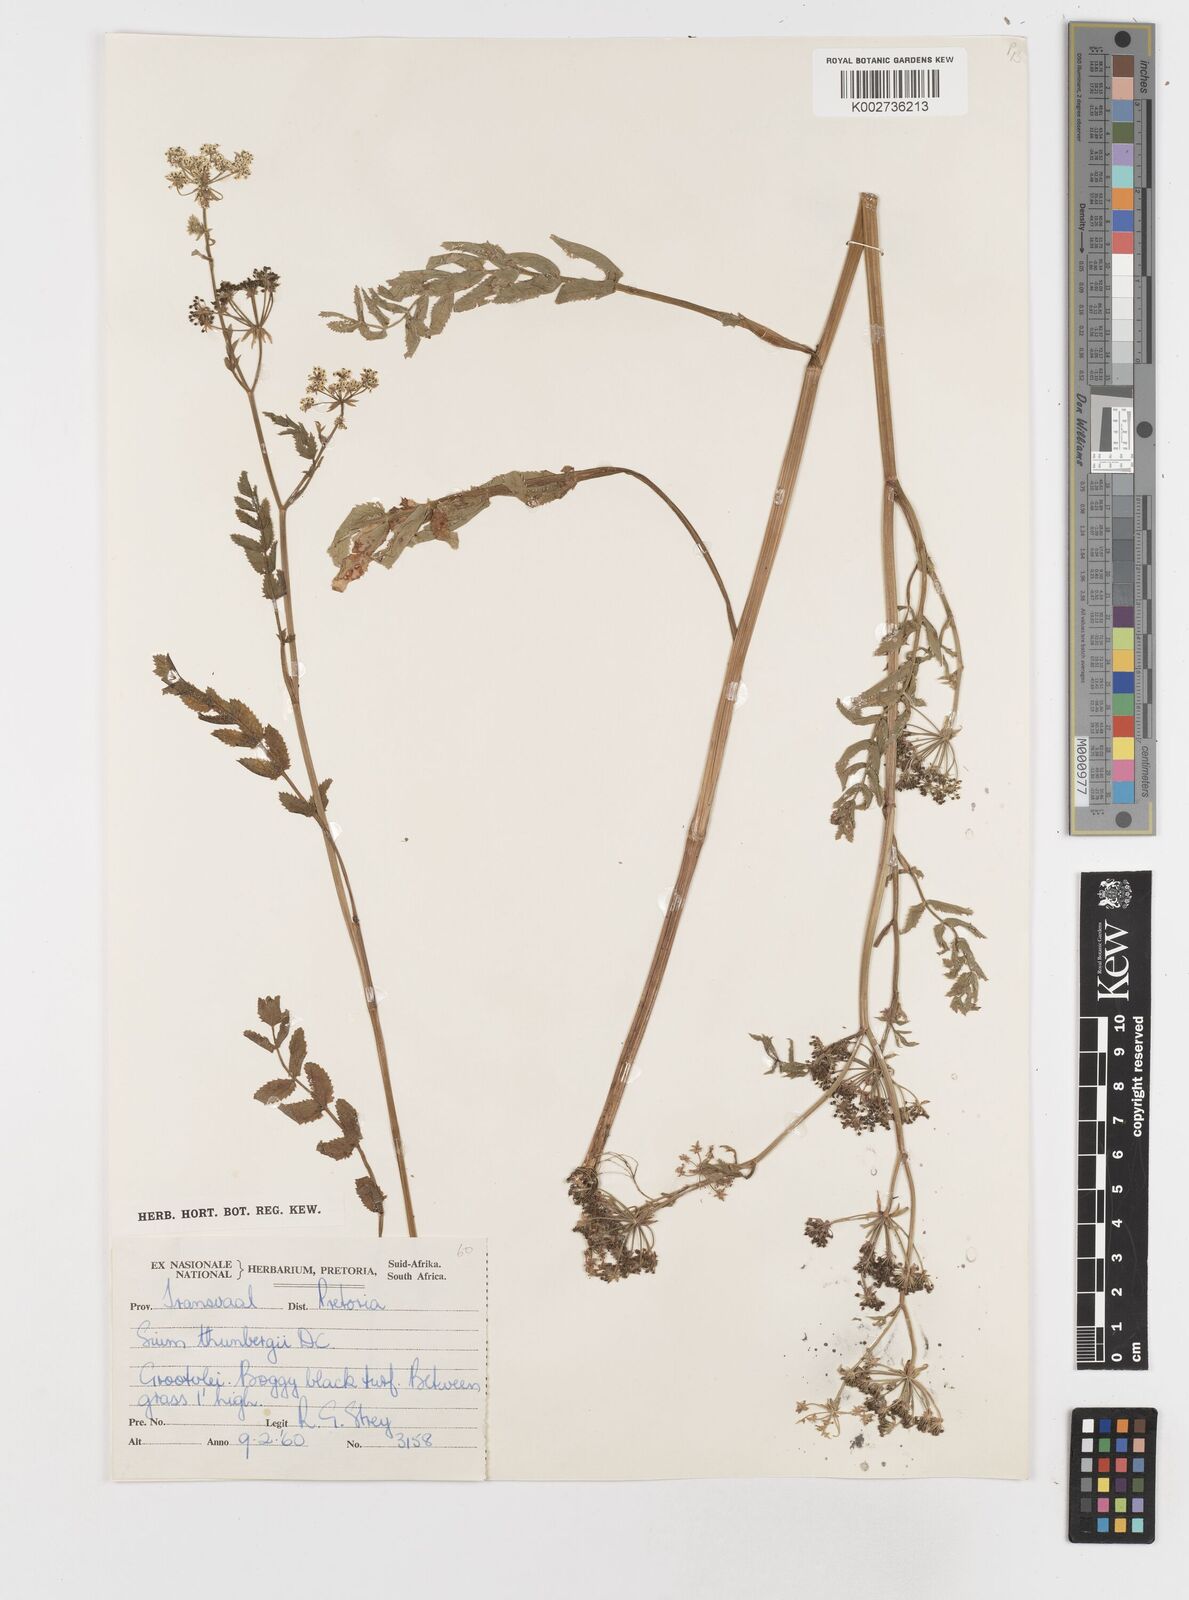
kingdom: Plantae
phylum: Tracheophyta
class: Magnoliopsida
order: Apiales
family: Apiaceae
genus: Berula
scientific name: Berula erecta
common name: Lesser water-parsnip
